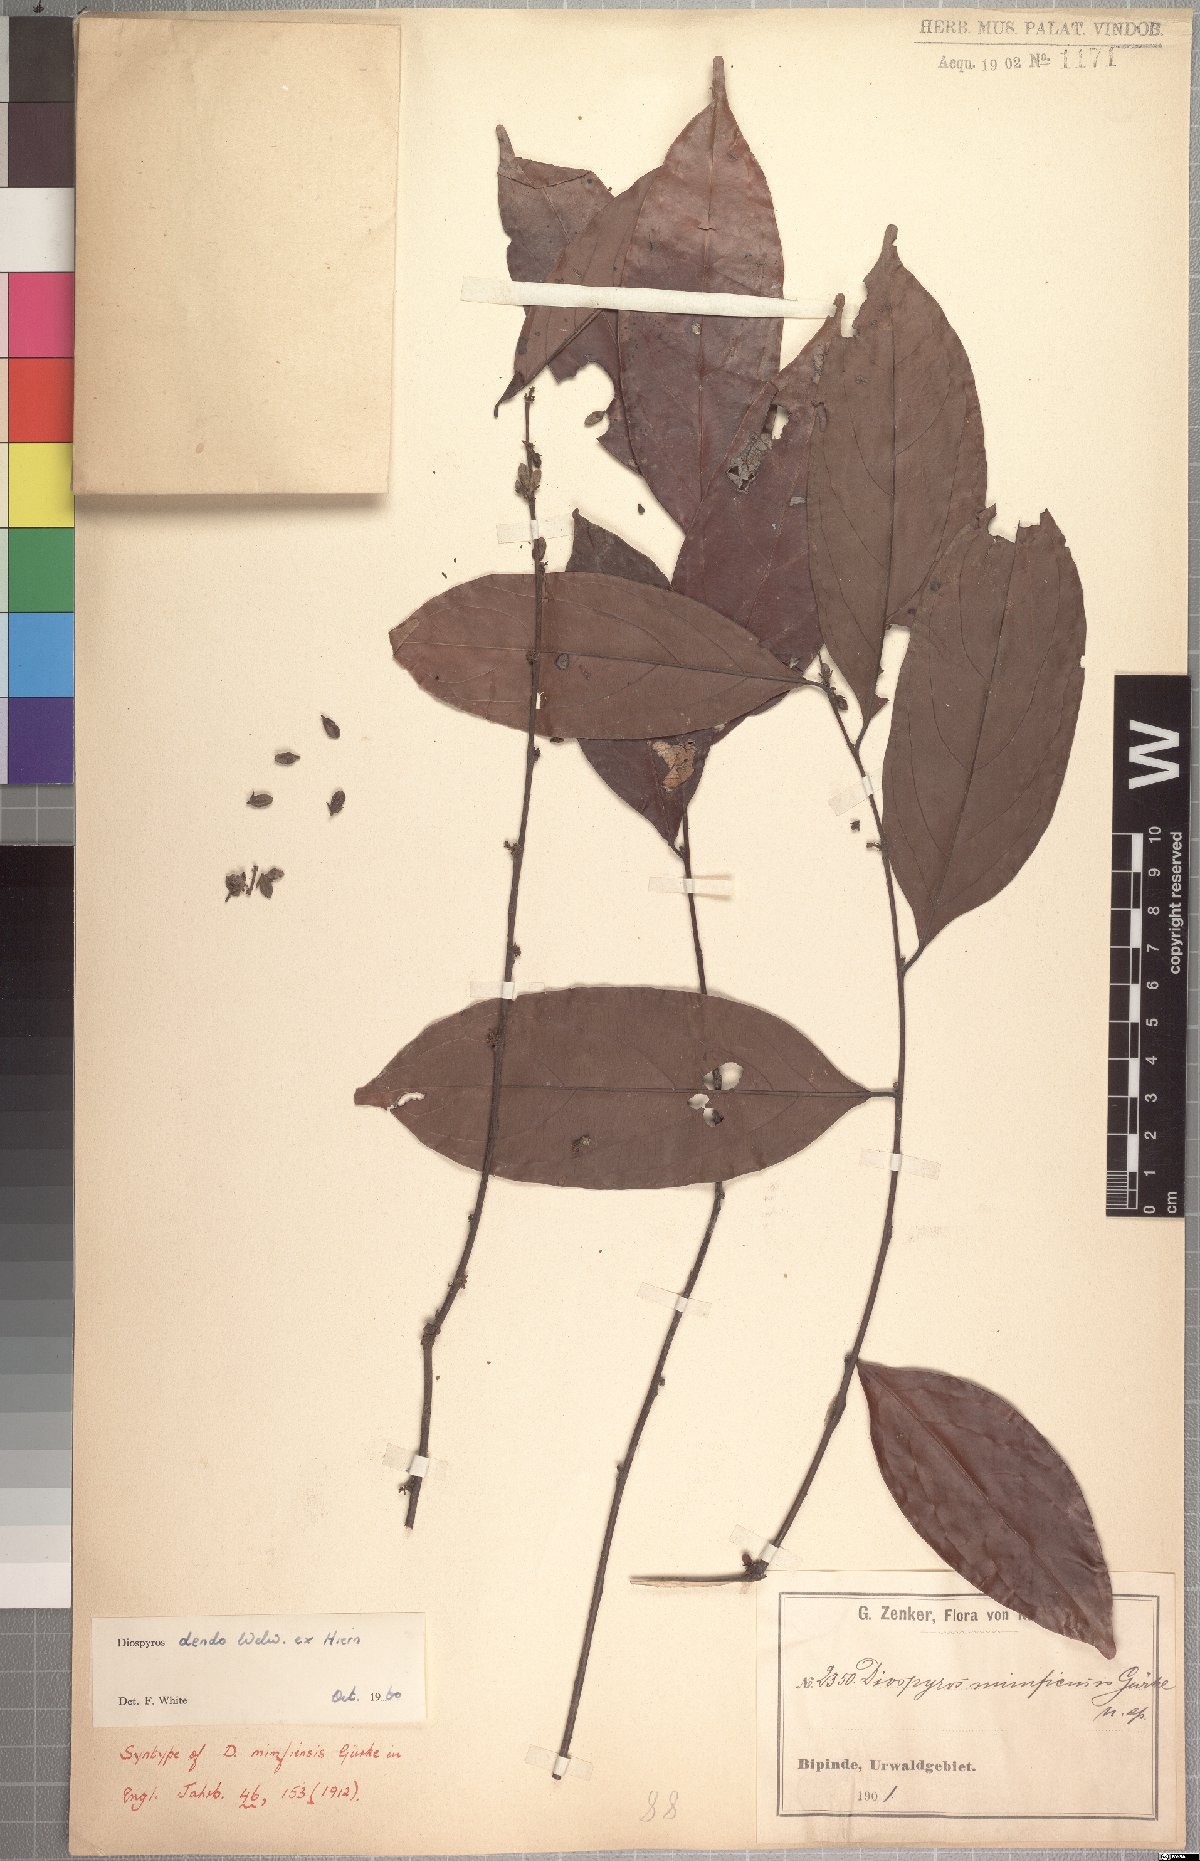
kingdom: Plantae
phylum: Tracheophyta
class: Magnoliopsida
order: Ericales
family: Ebenaceae
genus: Diospyros
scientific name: Diospyros dendo
